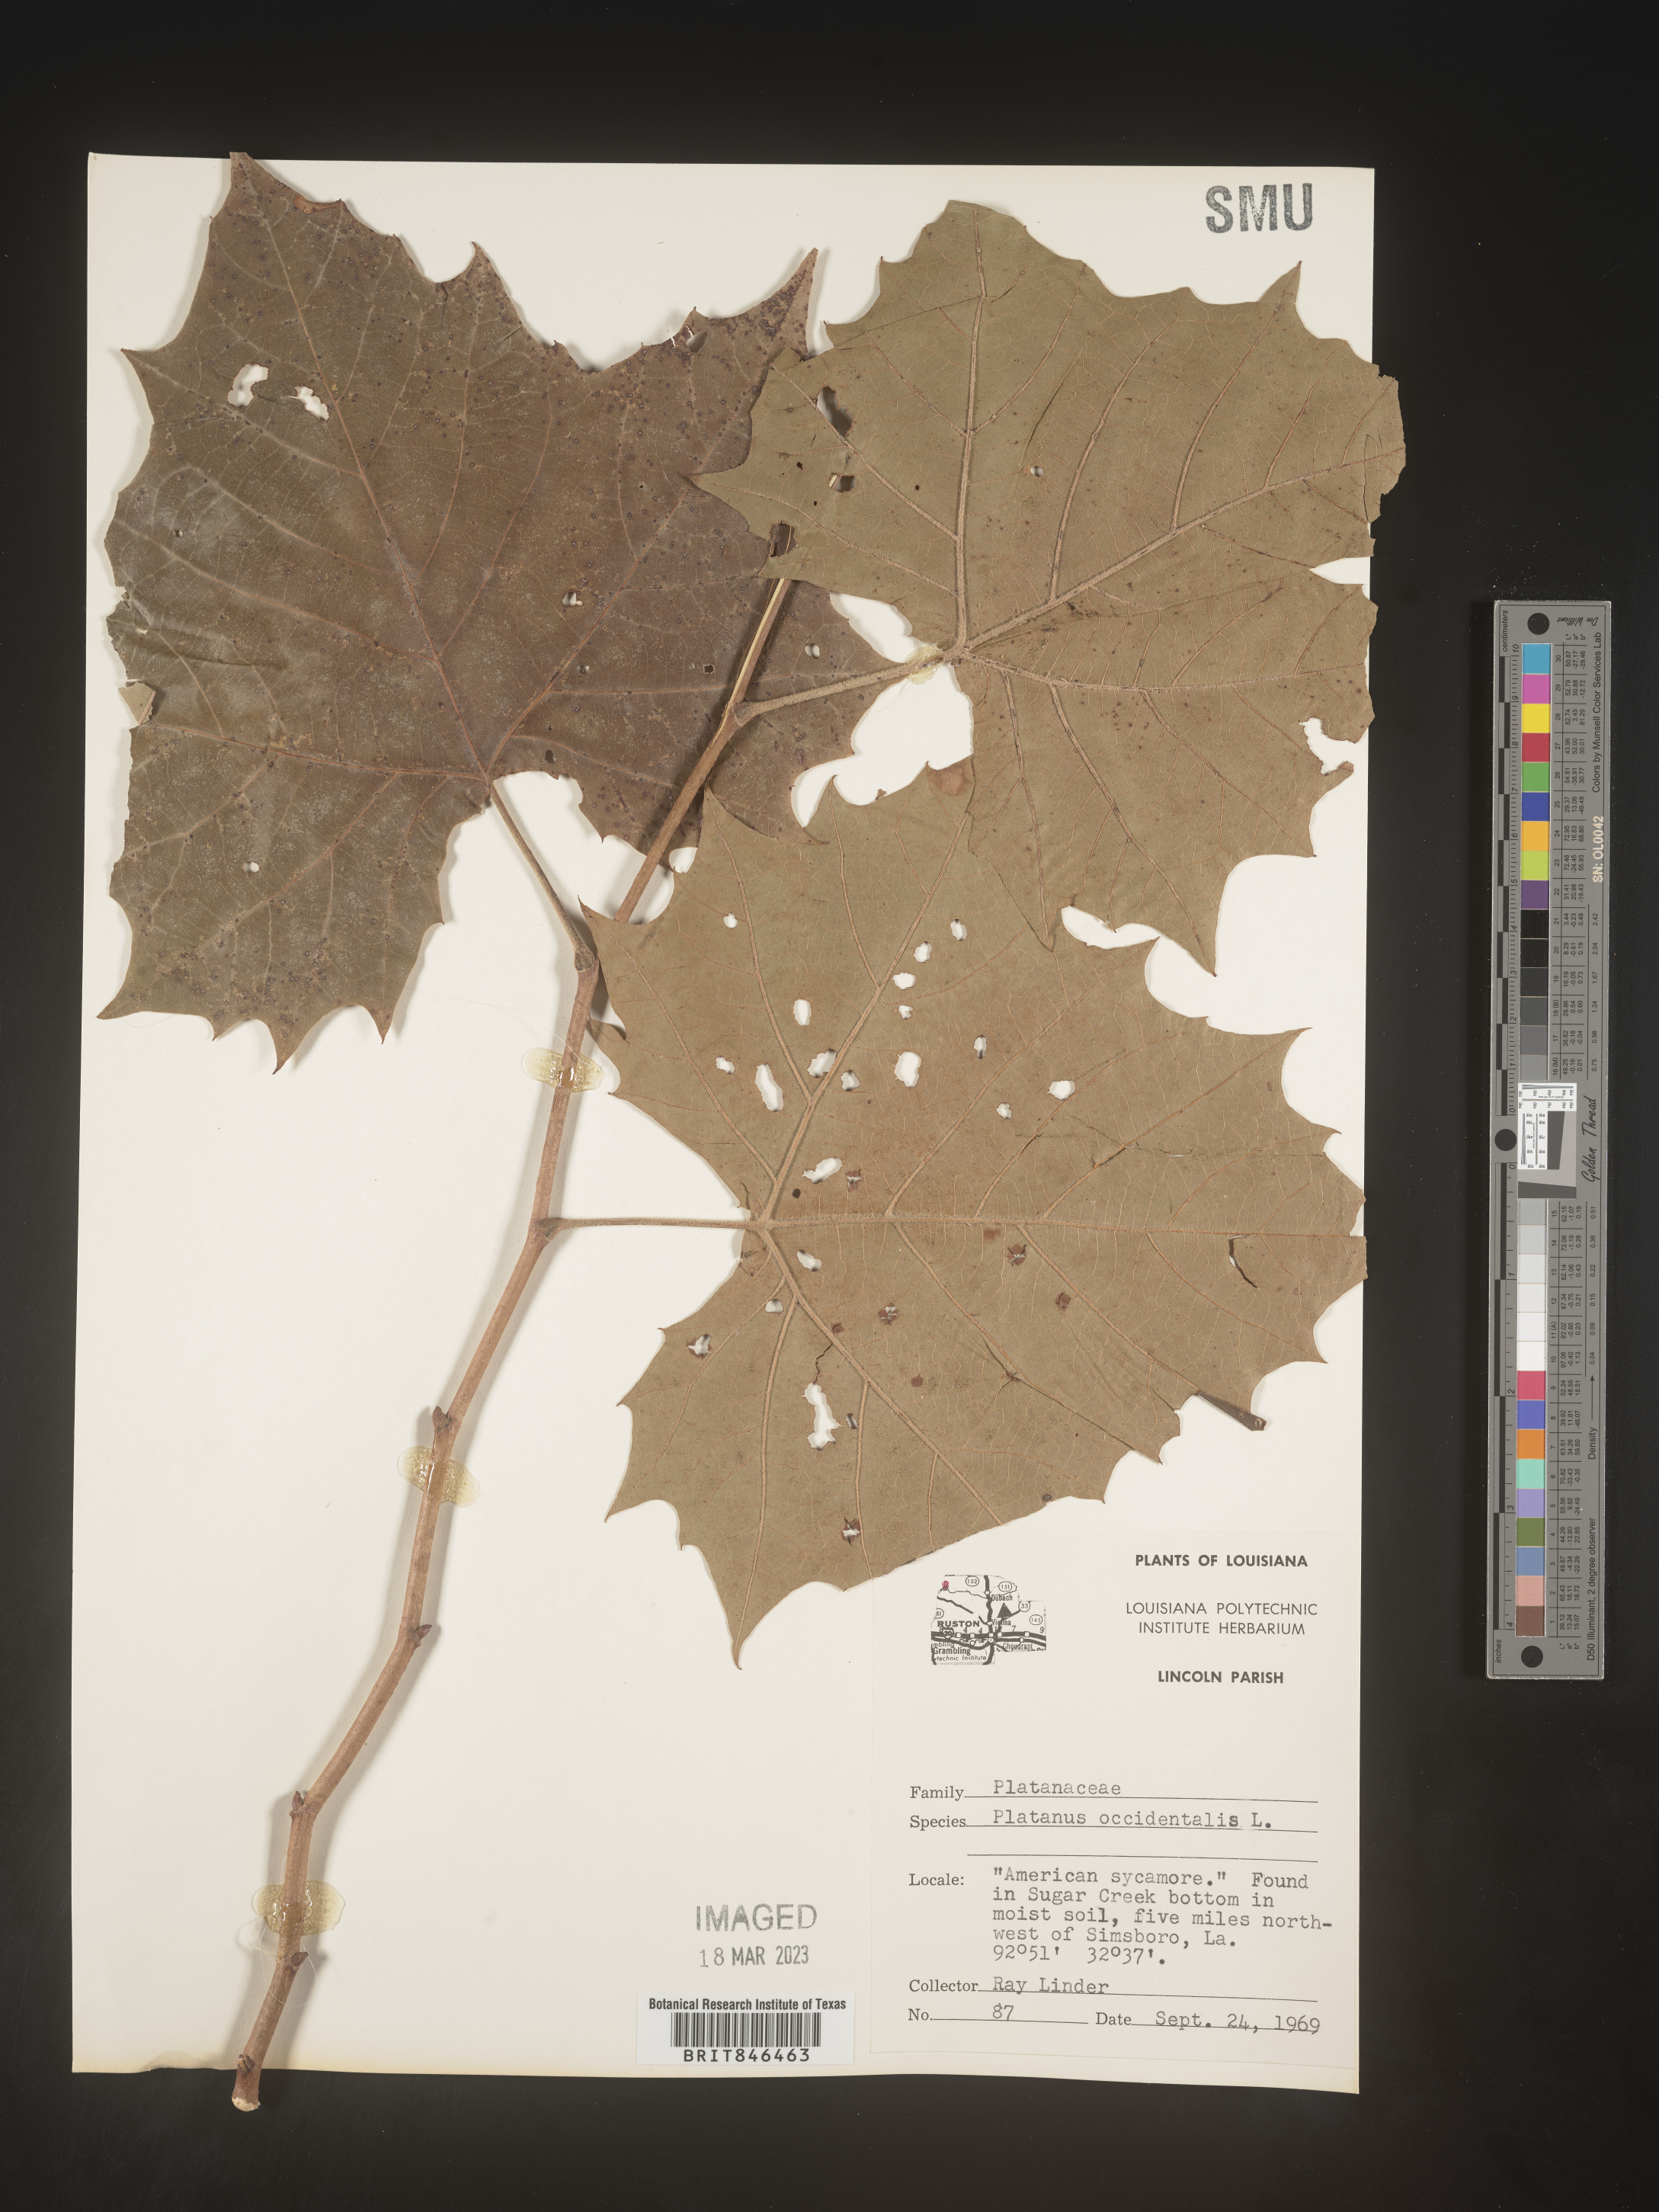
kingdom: Plantae
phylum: Tracheophyta
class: Magnoliopsida
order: Proteales
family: Platanaceae
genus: Platanus
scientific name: Platanus occidentalis
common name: American sycamore
